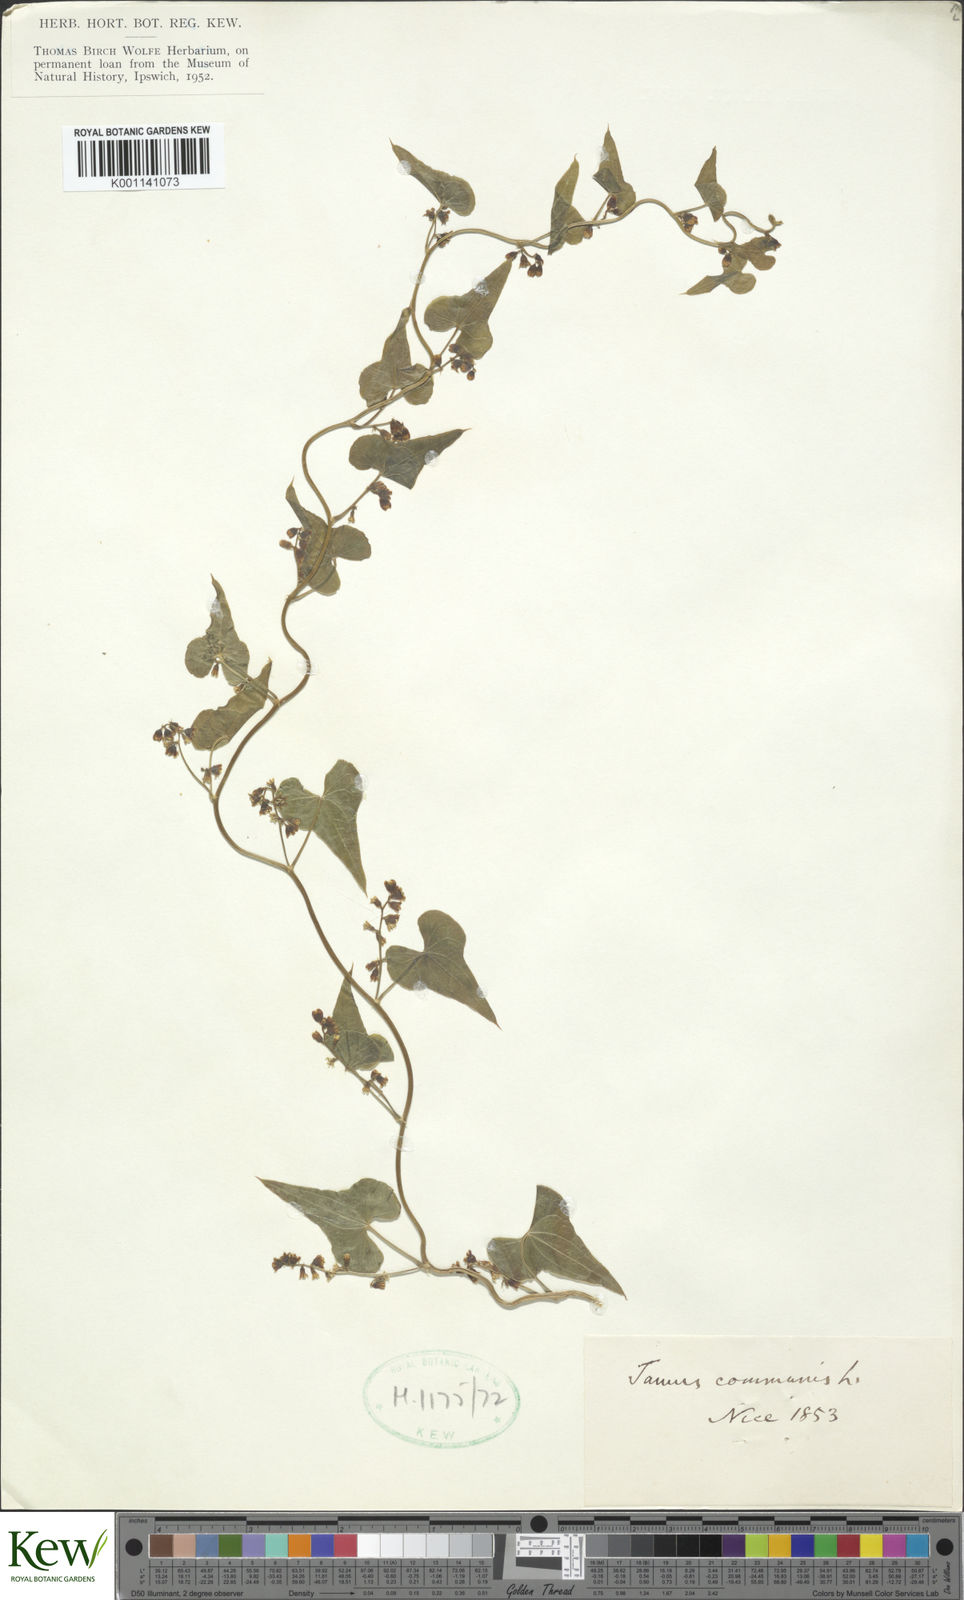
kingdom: Plantae
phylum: Tracheophyta
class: Liliopsida
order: Dioscoreales
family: Dioscoreaceae
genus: Dioscorea
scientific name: Dioscorea communis
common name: Black-bindweed
